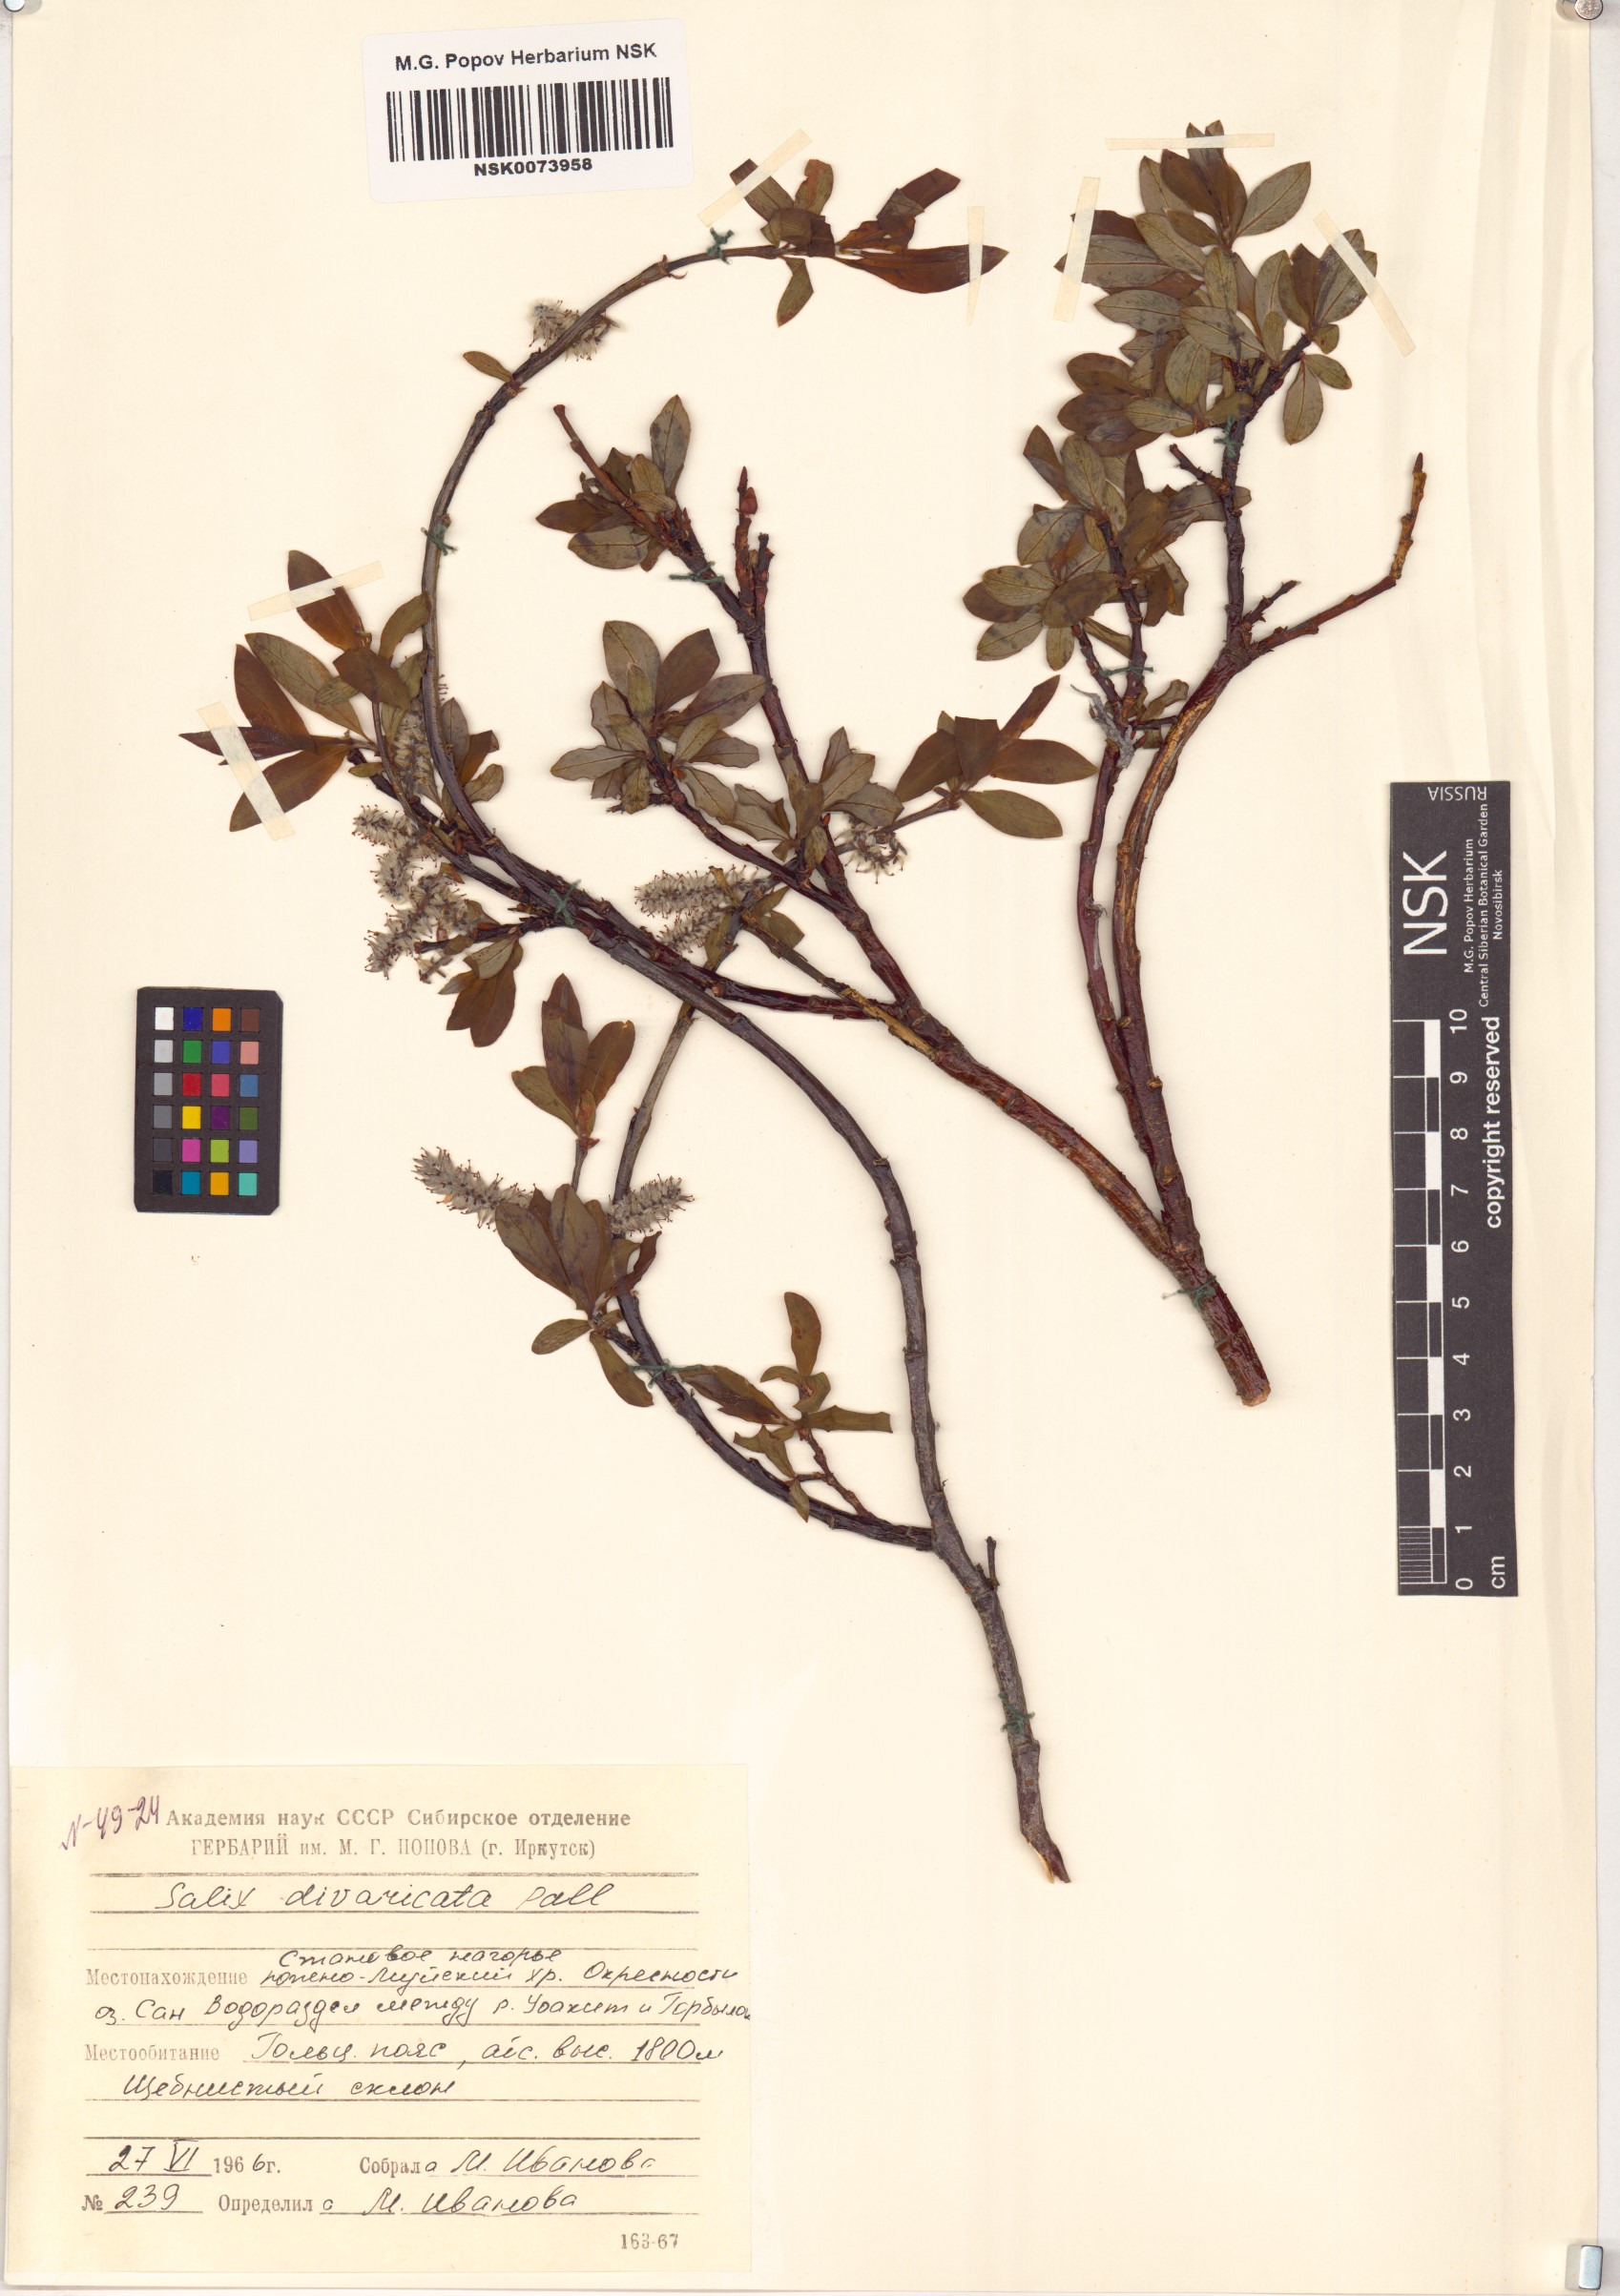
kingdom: Plantae
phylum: Tracheophyta
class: Magnoliopsida
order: Malpighiales
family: Salicaceae
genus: Salix
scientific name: Salix divaricata
